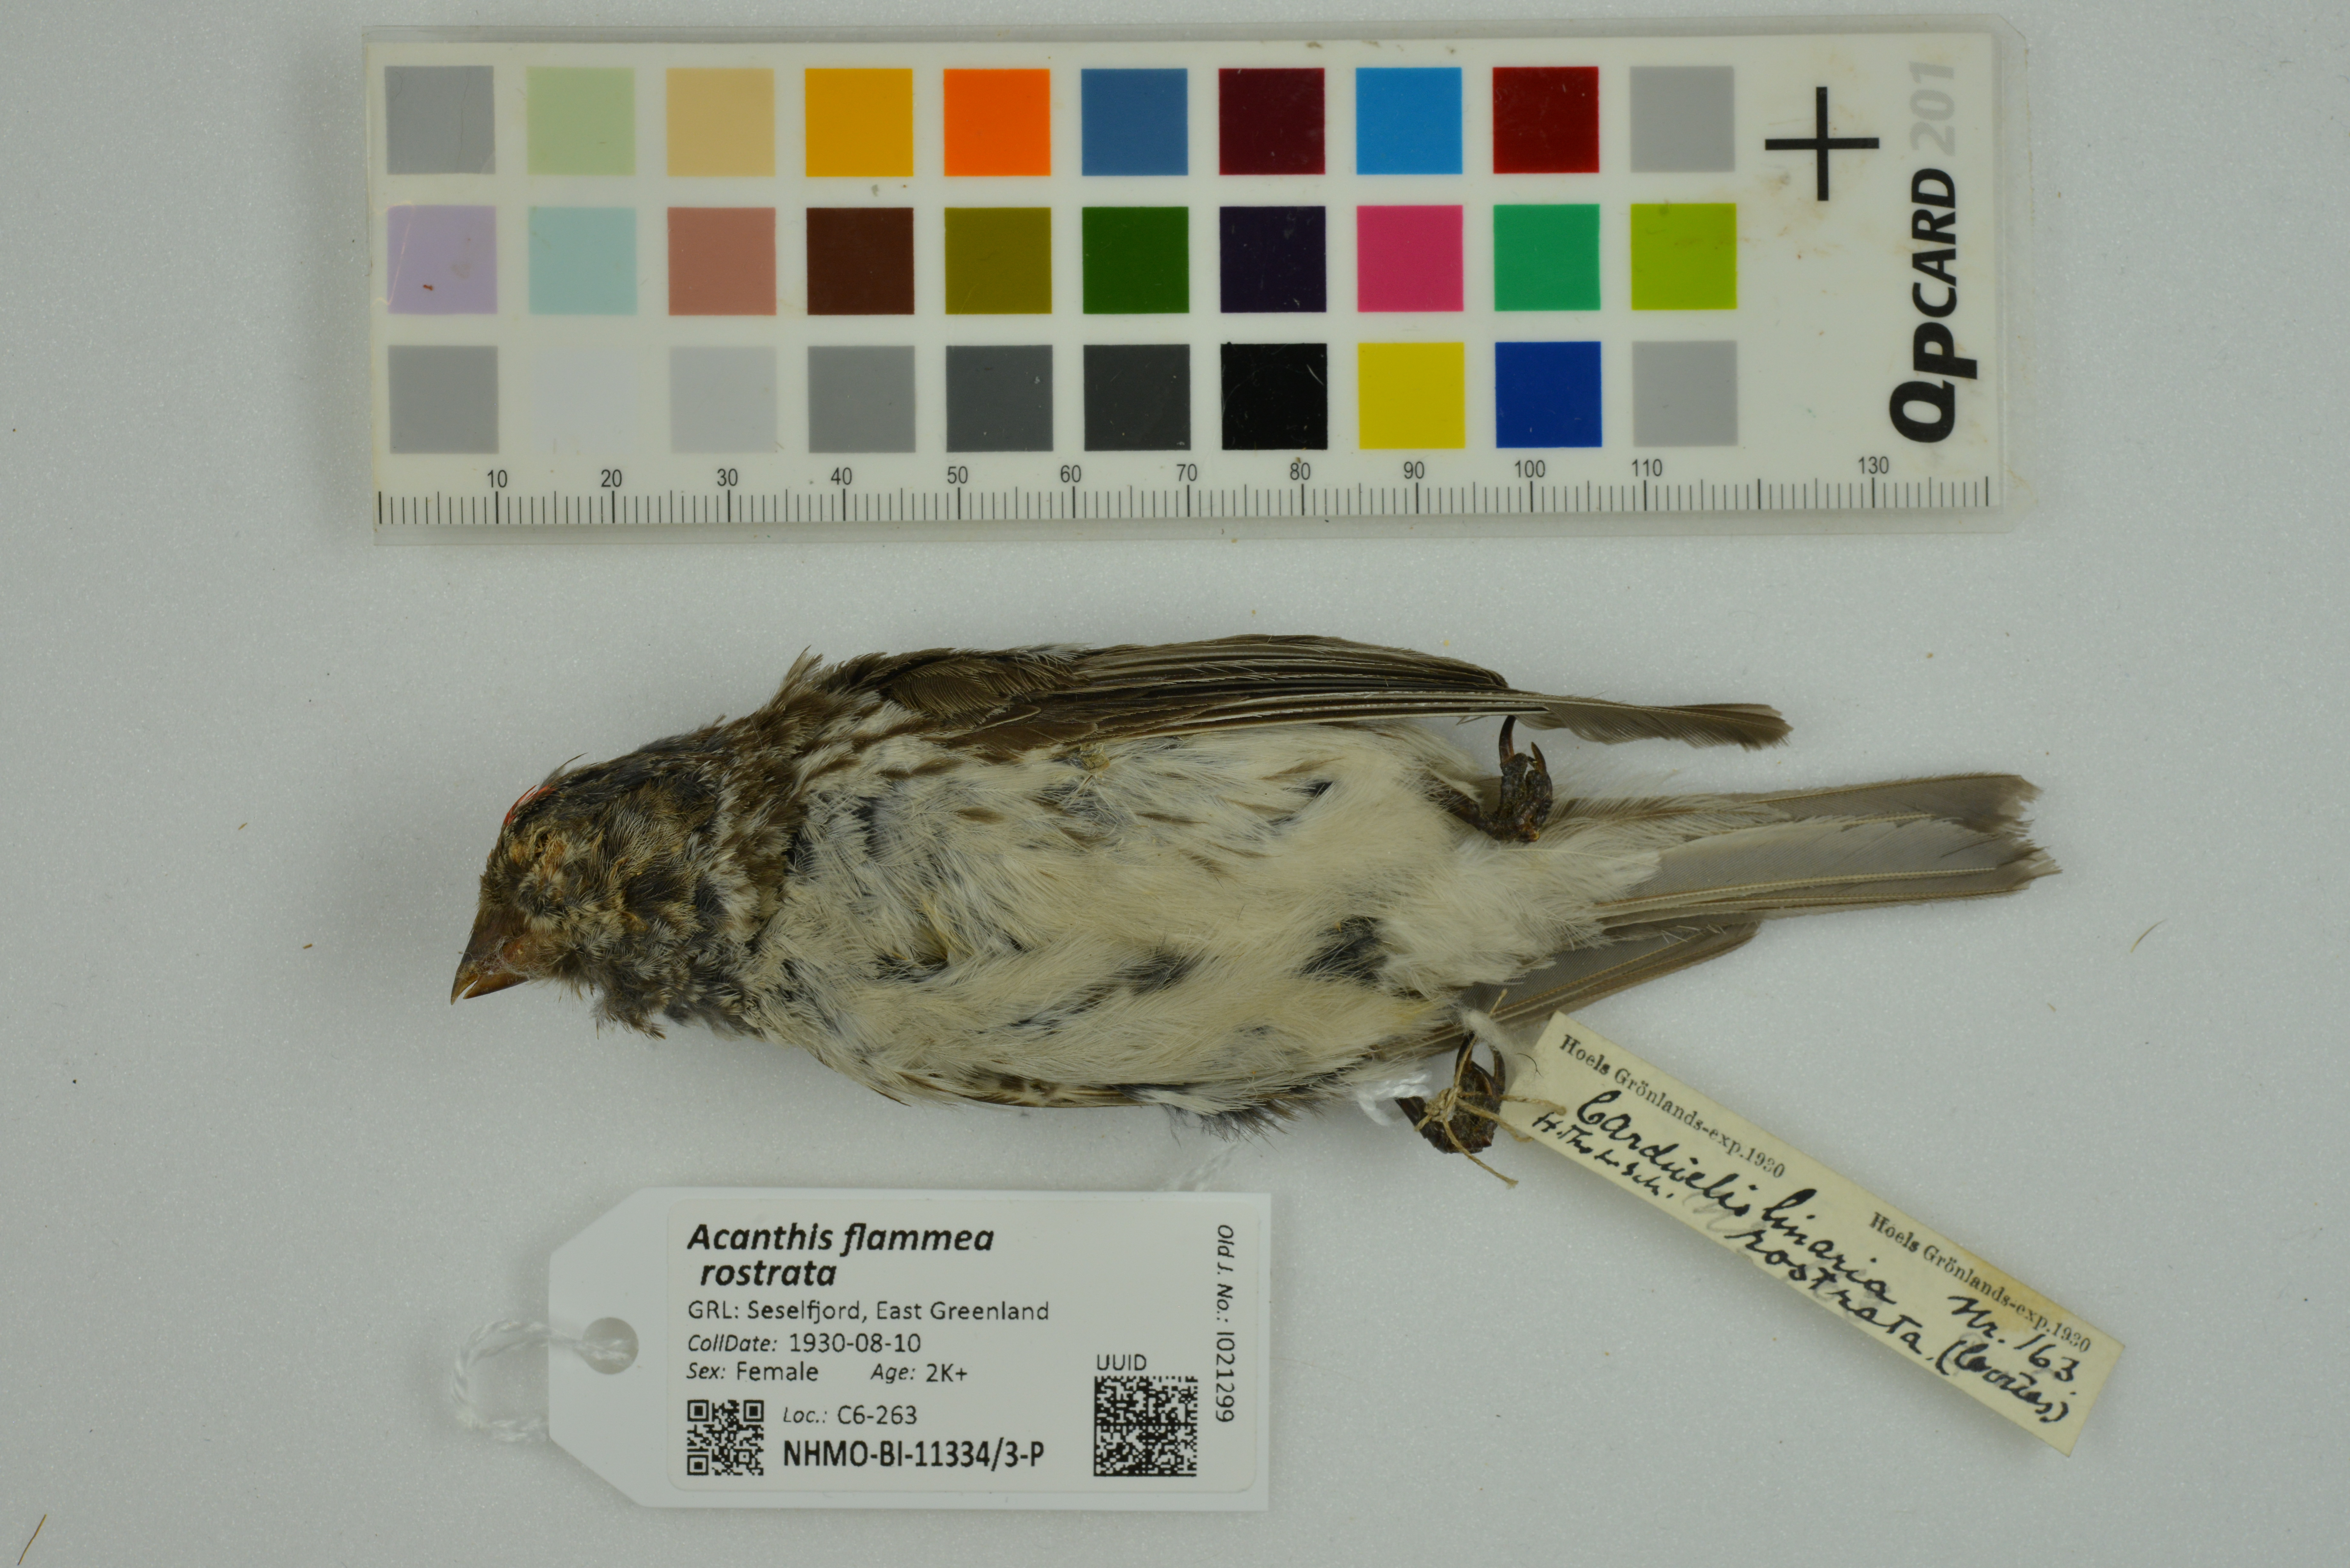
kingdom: Animalia
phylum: Chordata
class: Aves
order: Passeriformes
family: Fringillidae
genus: Acanthis
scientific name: Acanthis flammea
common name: Common redpoll
